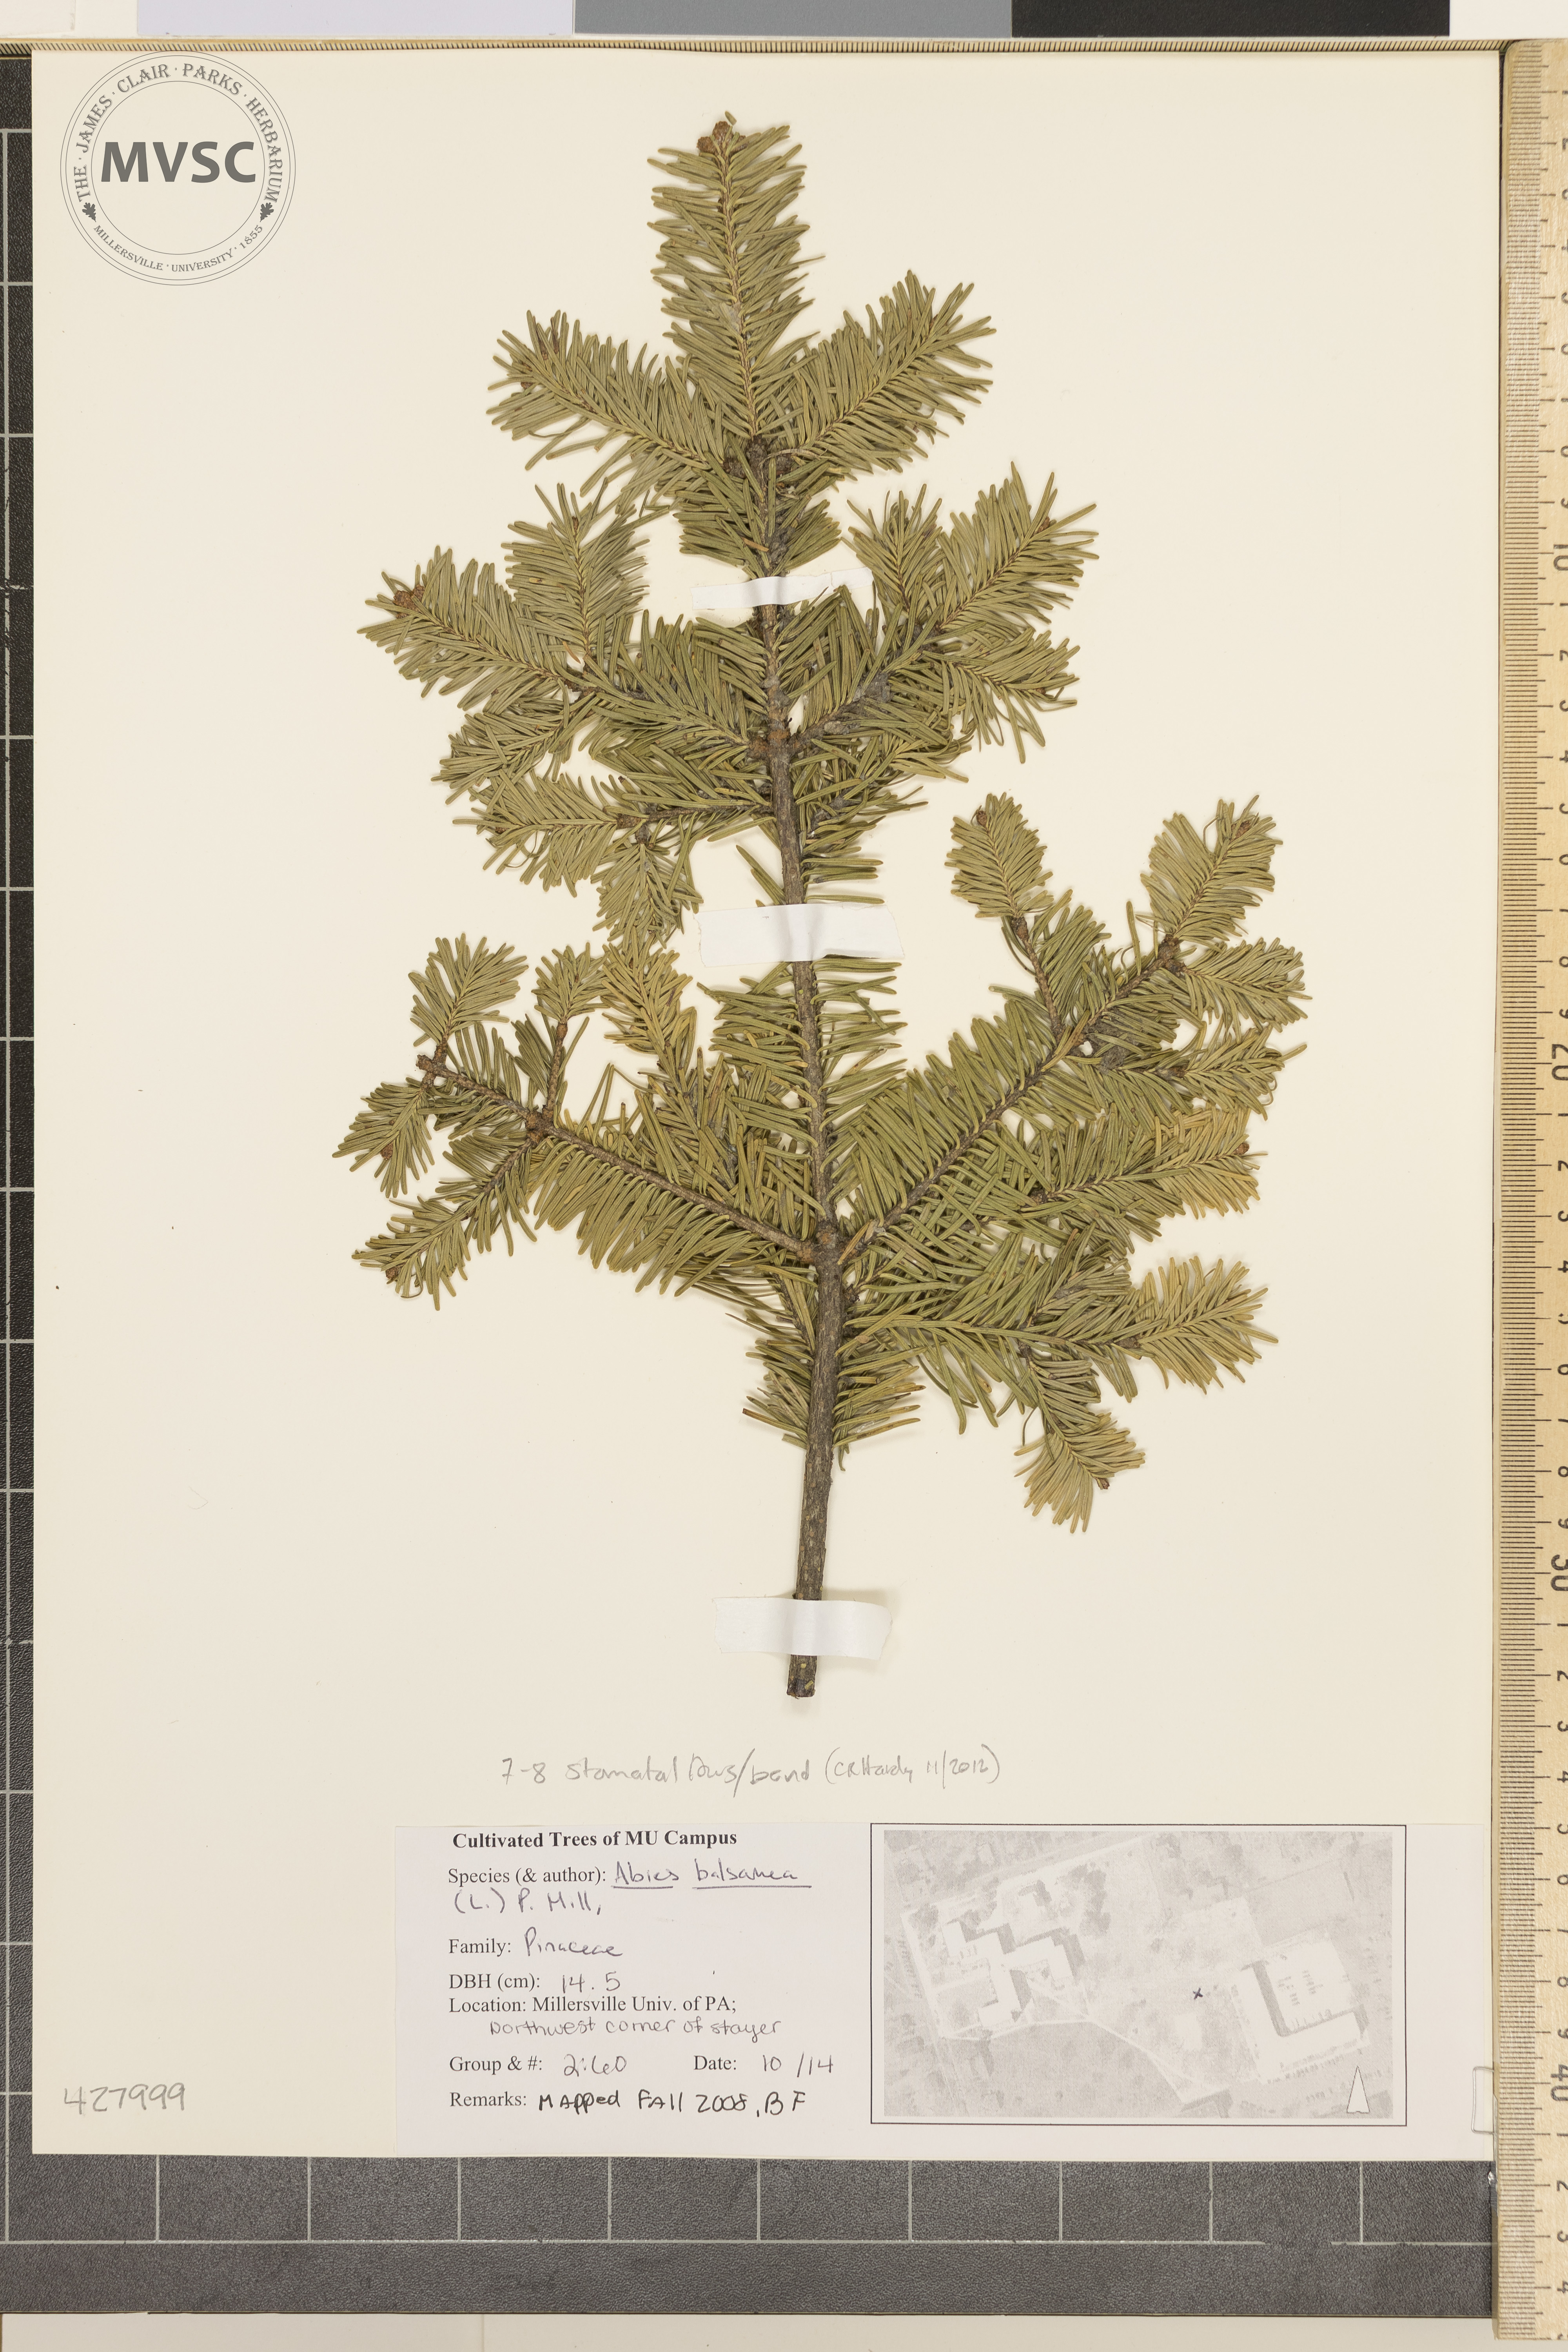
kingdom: Plantae
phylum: Tracheophyta
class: Pinopsida
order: Pinales
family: Pinaceae
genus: Abies
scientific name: Abies balsamea
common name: Balsam Fir
